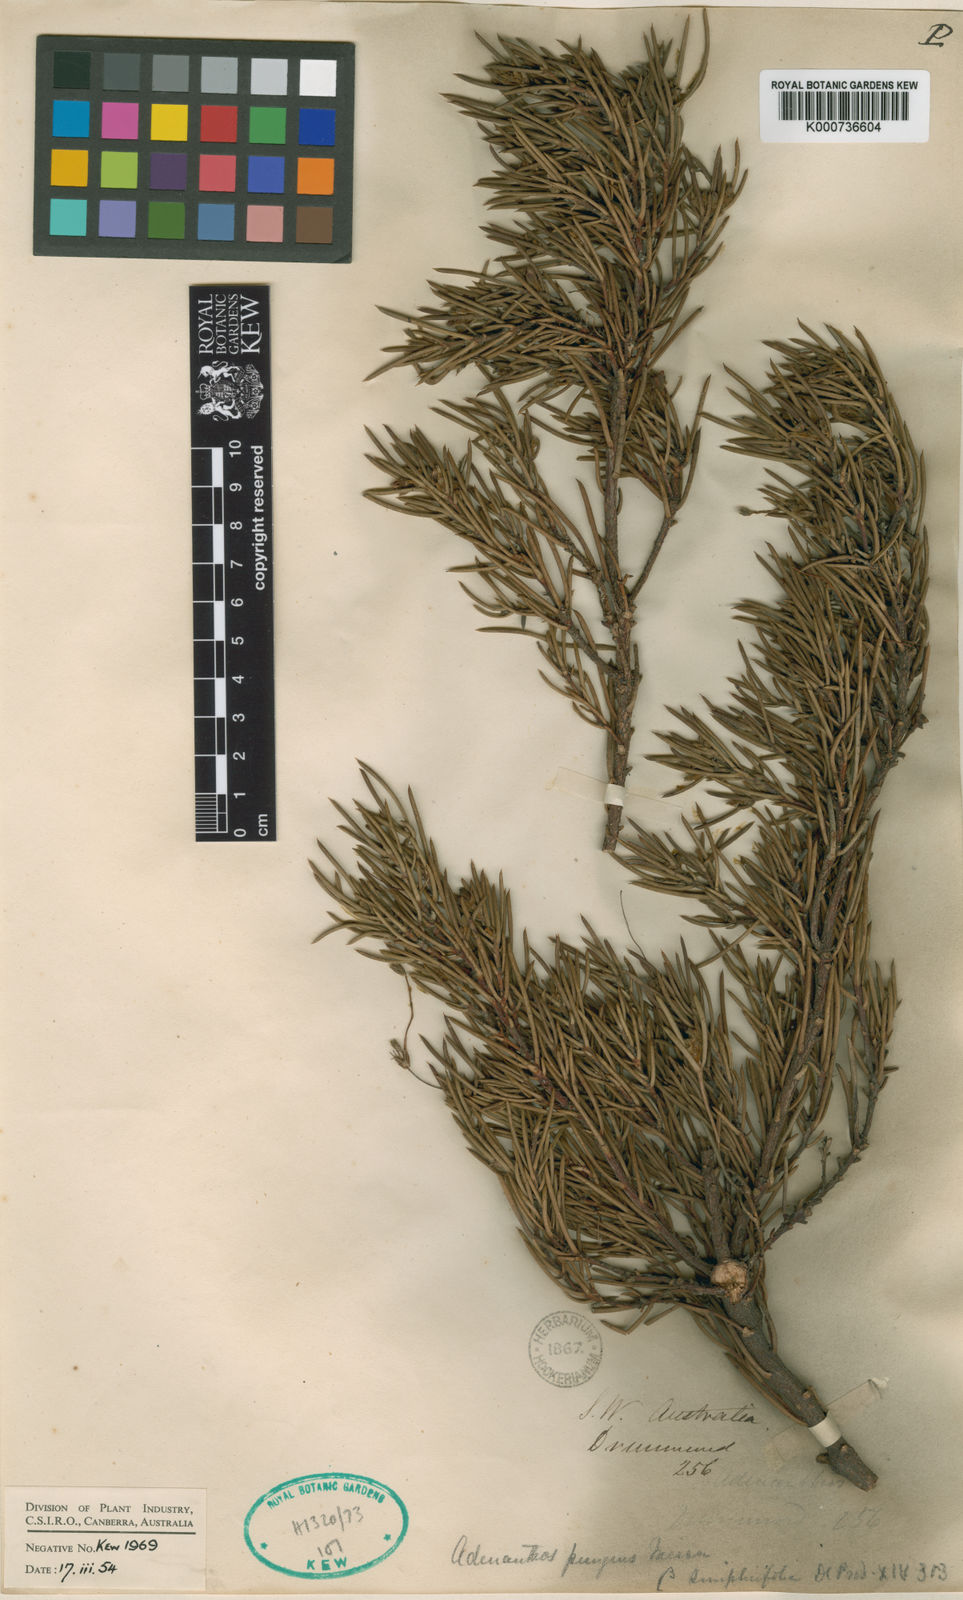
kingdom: Plantae
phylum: Tracheophyta
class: Magnoliopsida
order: Proteales
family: Proteaceae
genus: Adenanthos
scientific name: Adenanthos pungens
